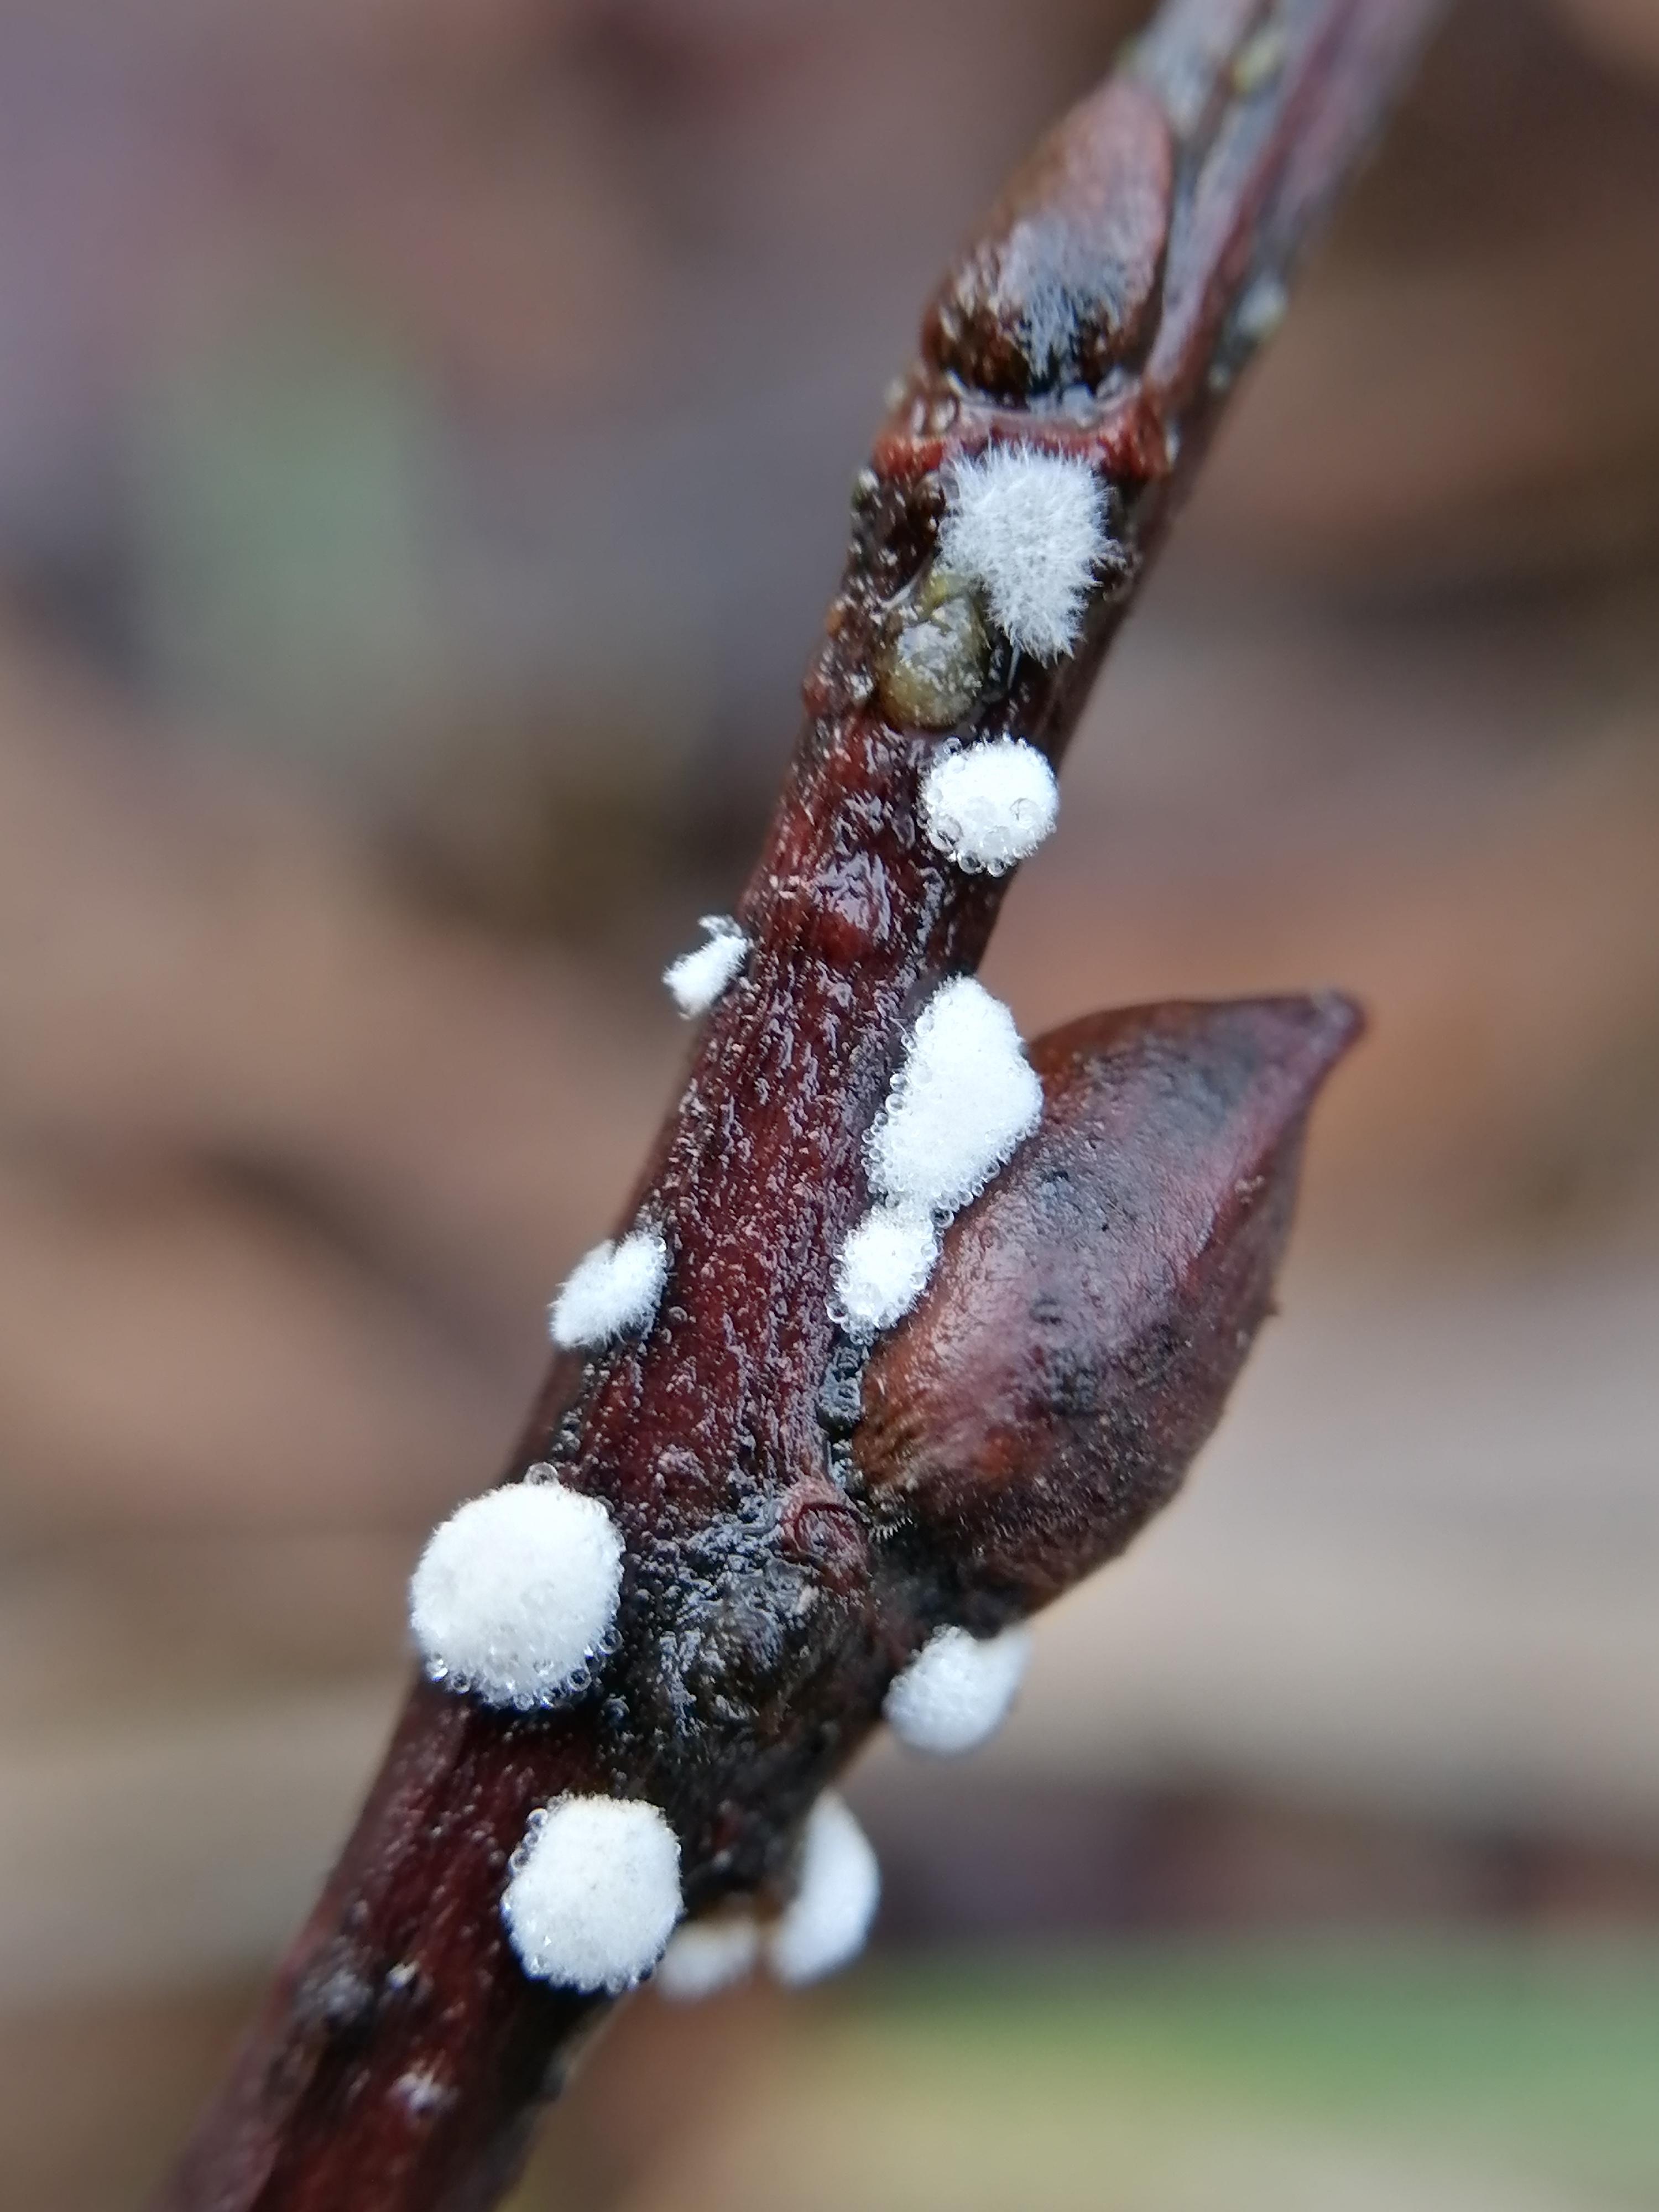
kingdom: Fungi
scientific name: Fungi
